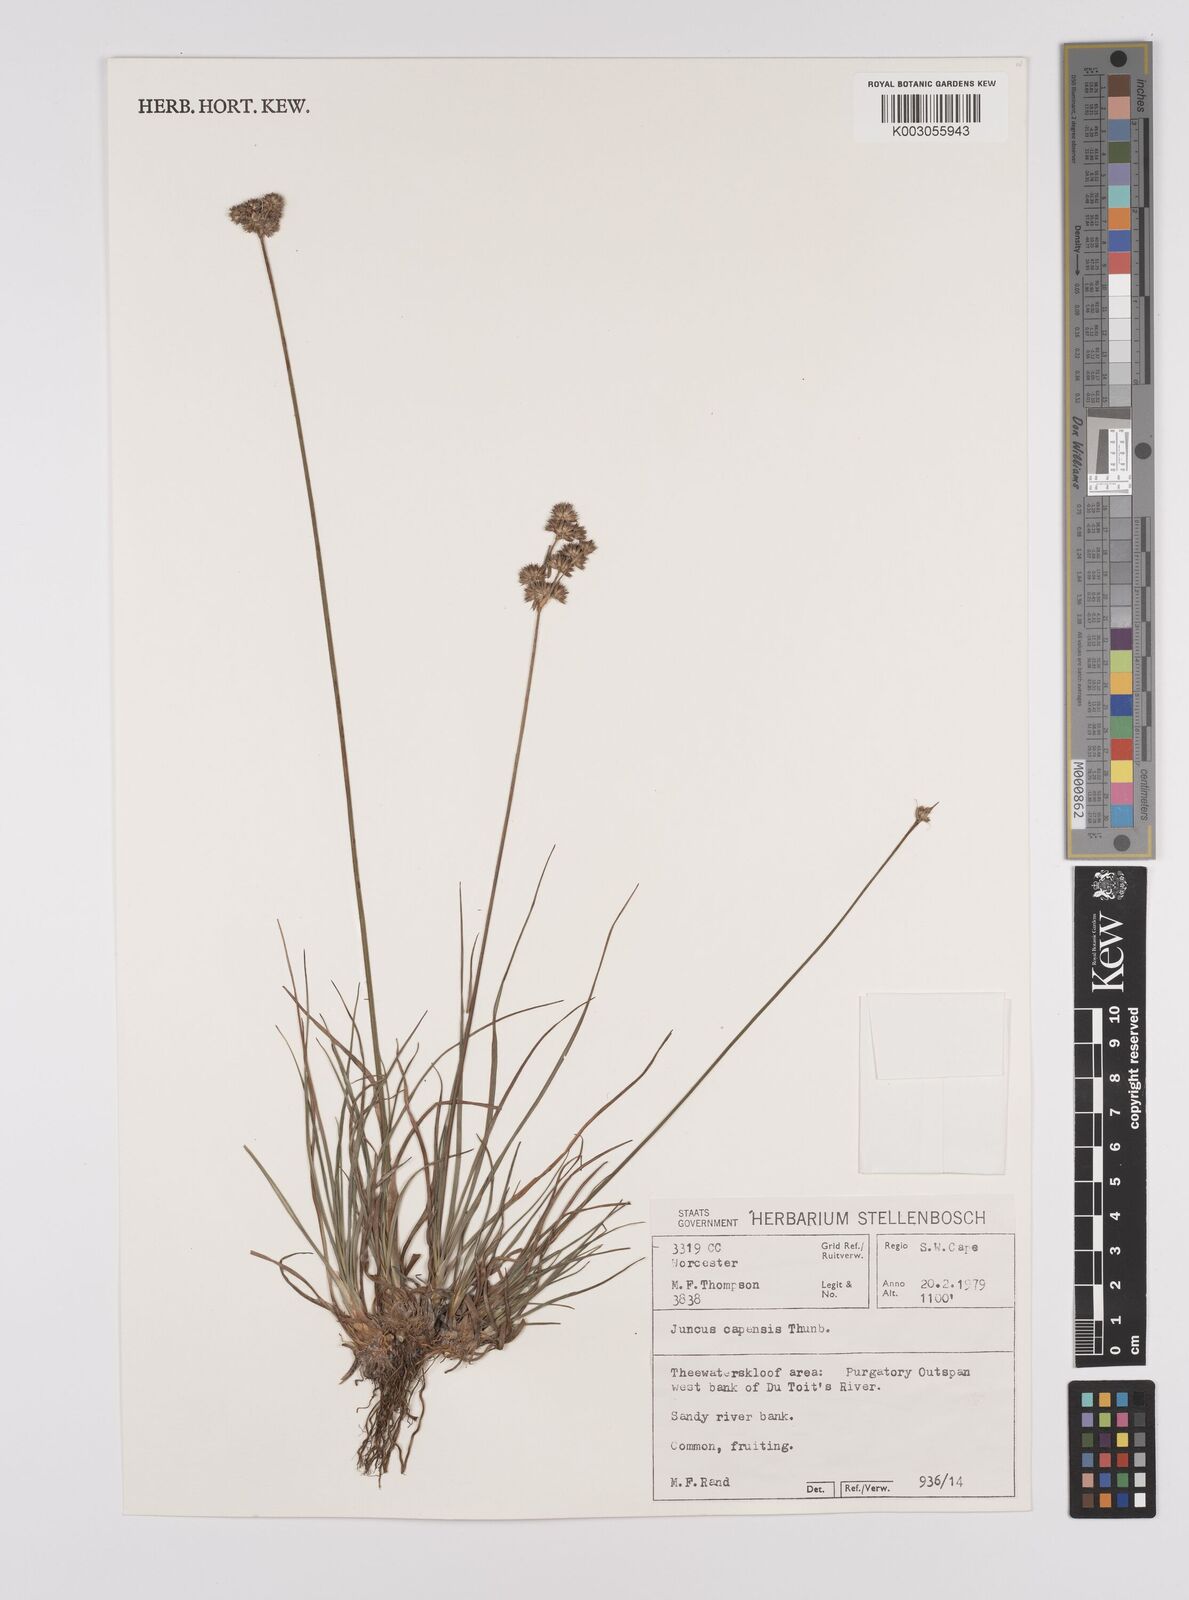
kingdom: Plantae
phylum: Tracheophyta
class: Liliopsida
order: Poales
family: Juncaceae
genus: Juncus
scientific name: Juncus capensis
